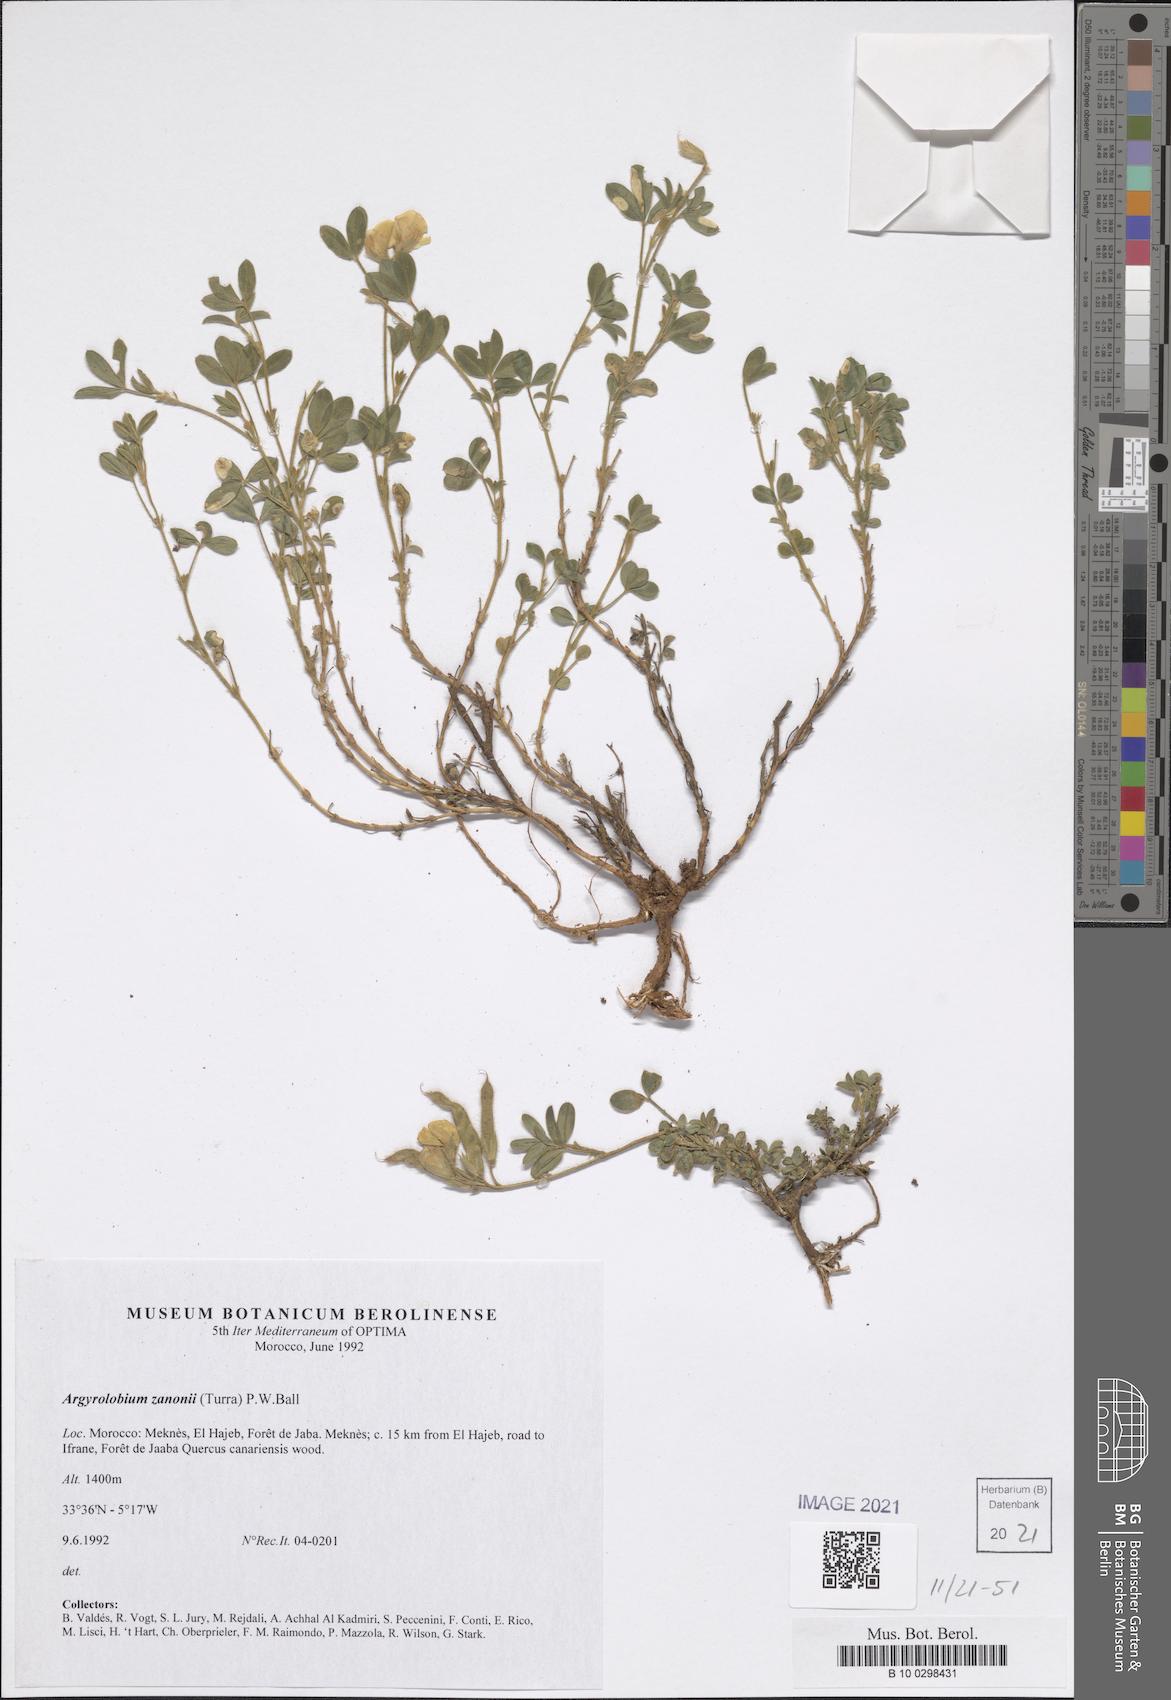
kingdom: Plantae
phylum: Tracheophyta
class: Magnoliopsida
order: Fabales
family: Fabaceae
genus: Argyrolobium
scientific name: Argyrolobium zanonii
